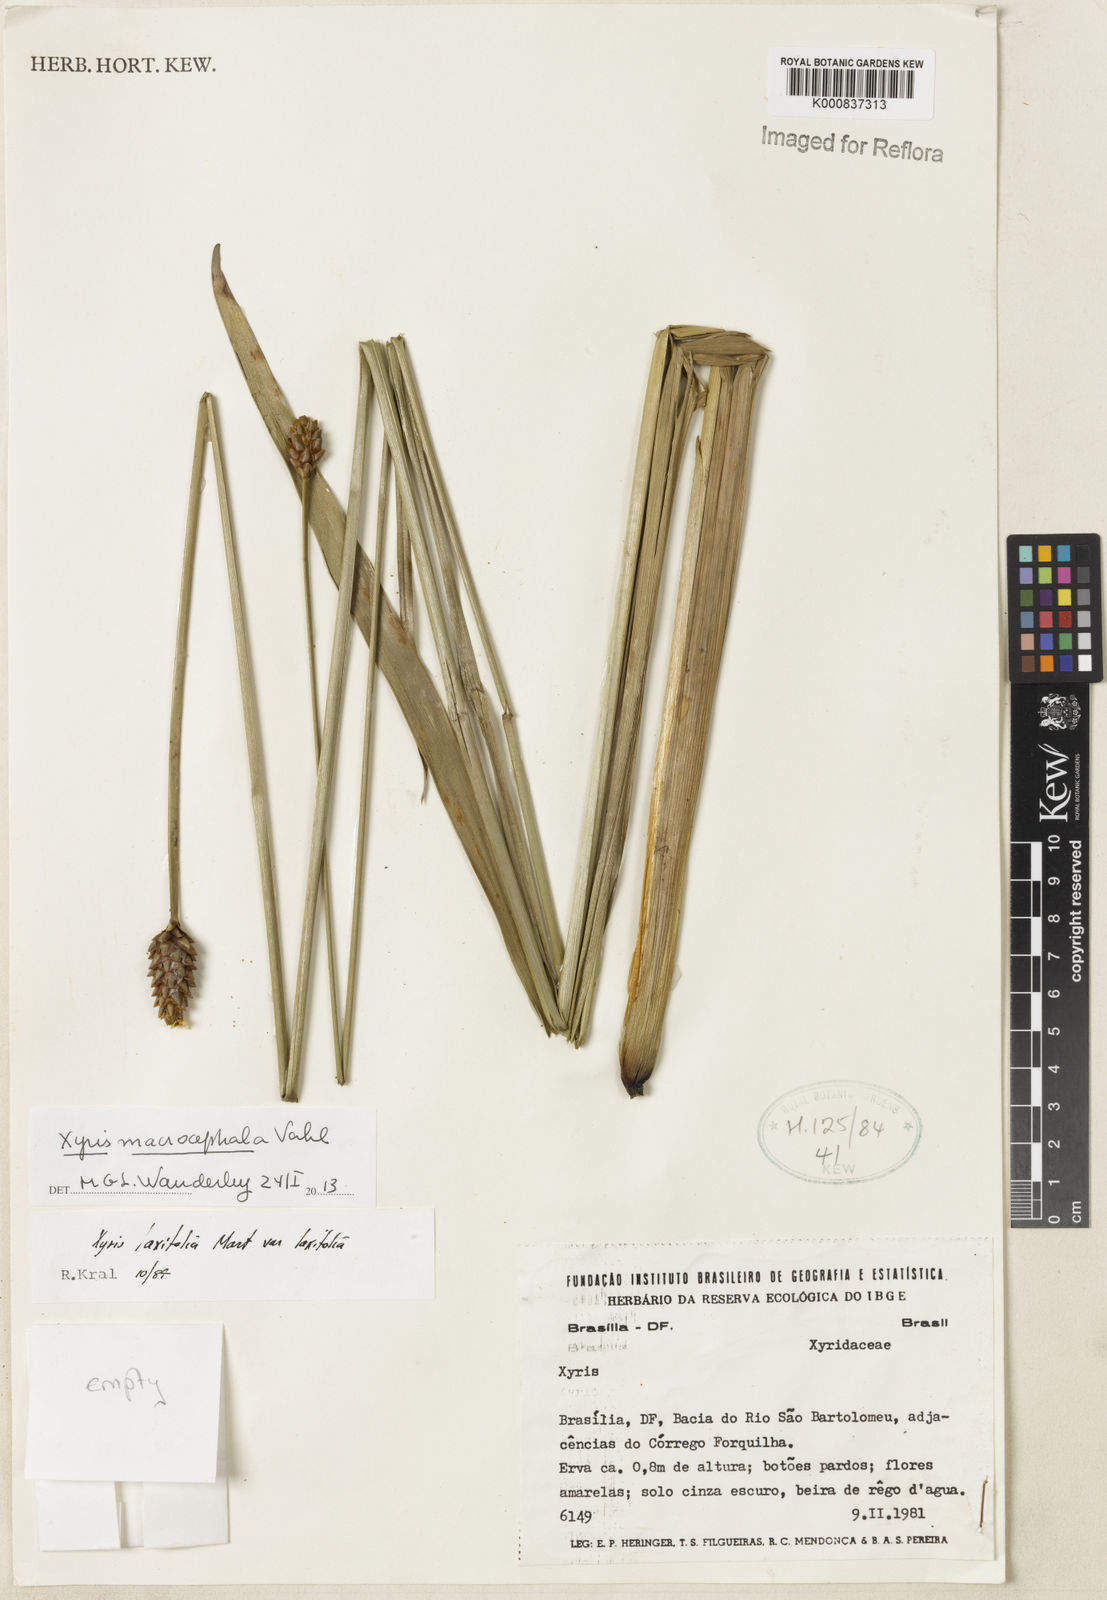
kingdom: Plantae
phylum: Tracheophyta
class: Liliopsida
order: Poales
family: Xyridaceae
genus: Xyris
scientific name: Xyris jupicai
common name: Richard's yelloweyed grass
